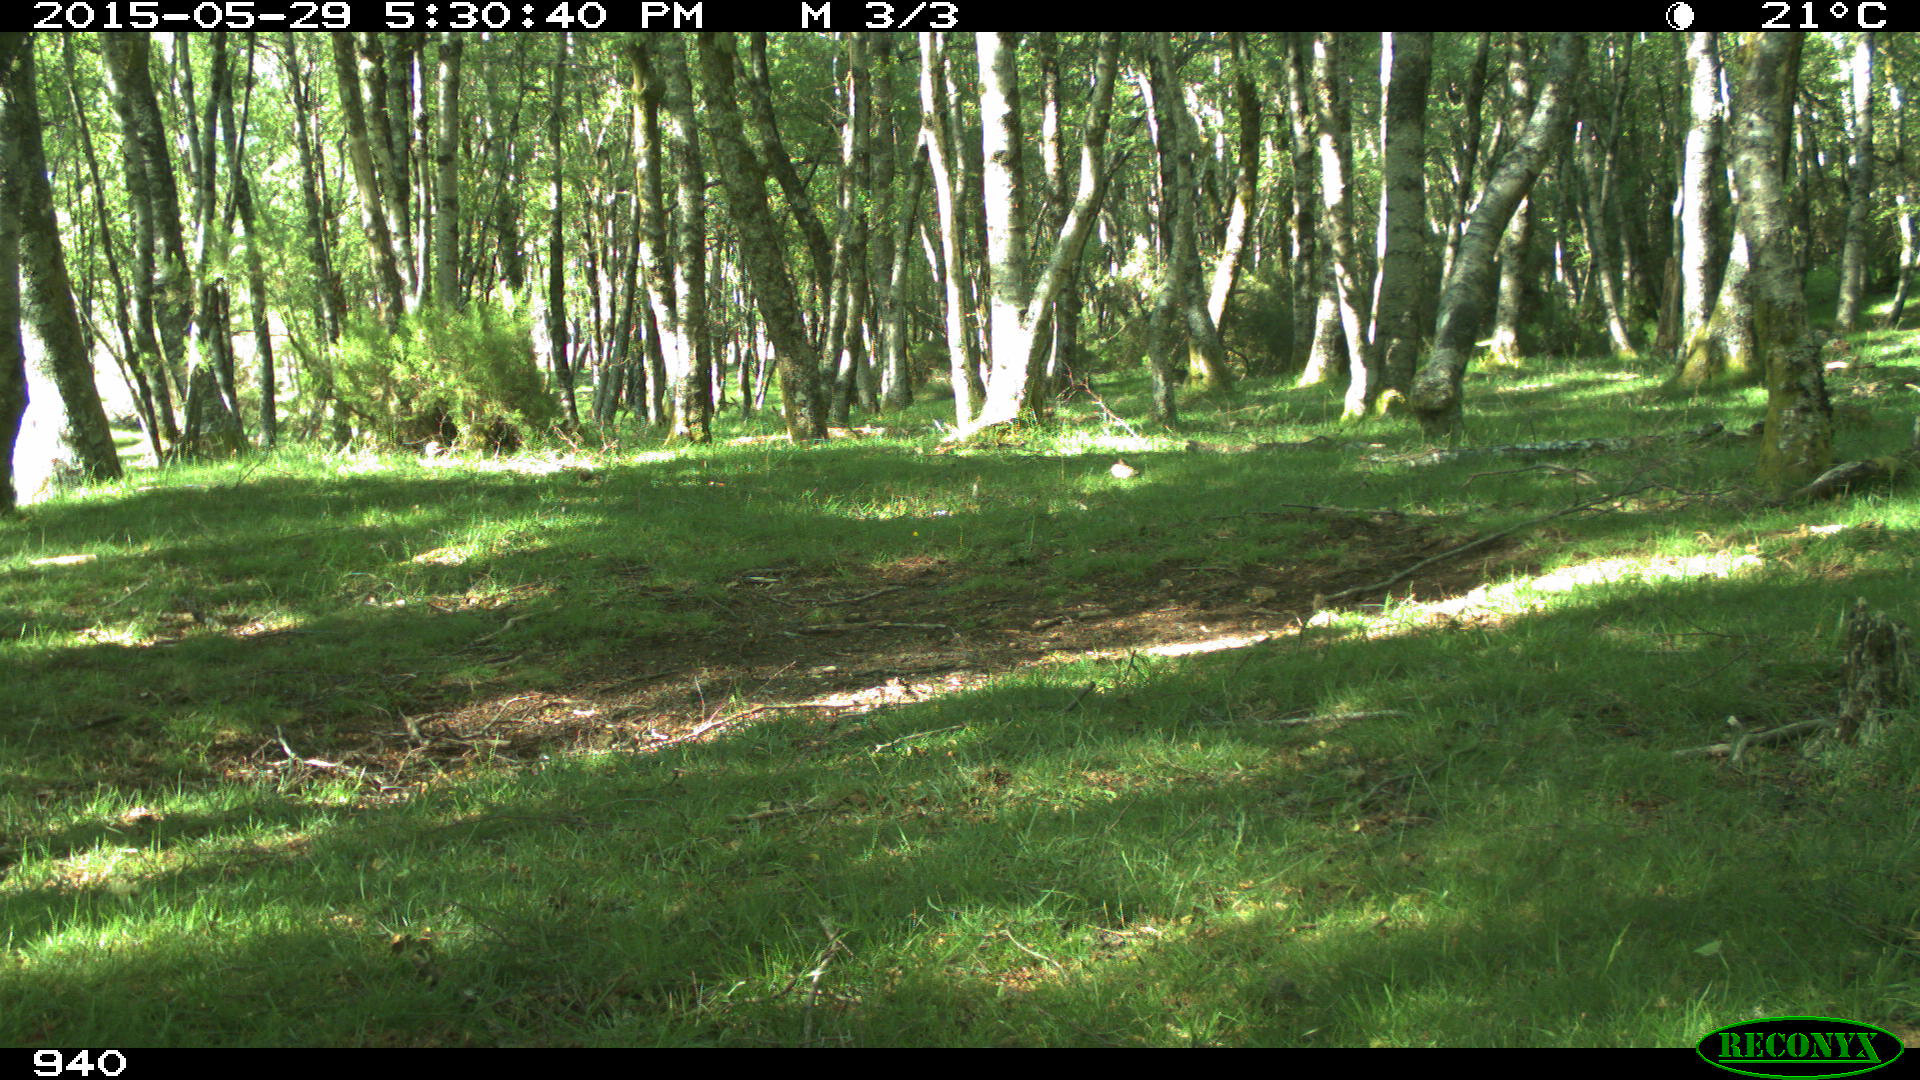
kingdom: Animalia
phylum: Chordata
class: Mammalia
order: Carnivora
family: Canidae
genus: Vulpes
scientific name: Vulpes vulpes
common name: Red fox
